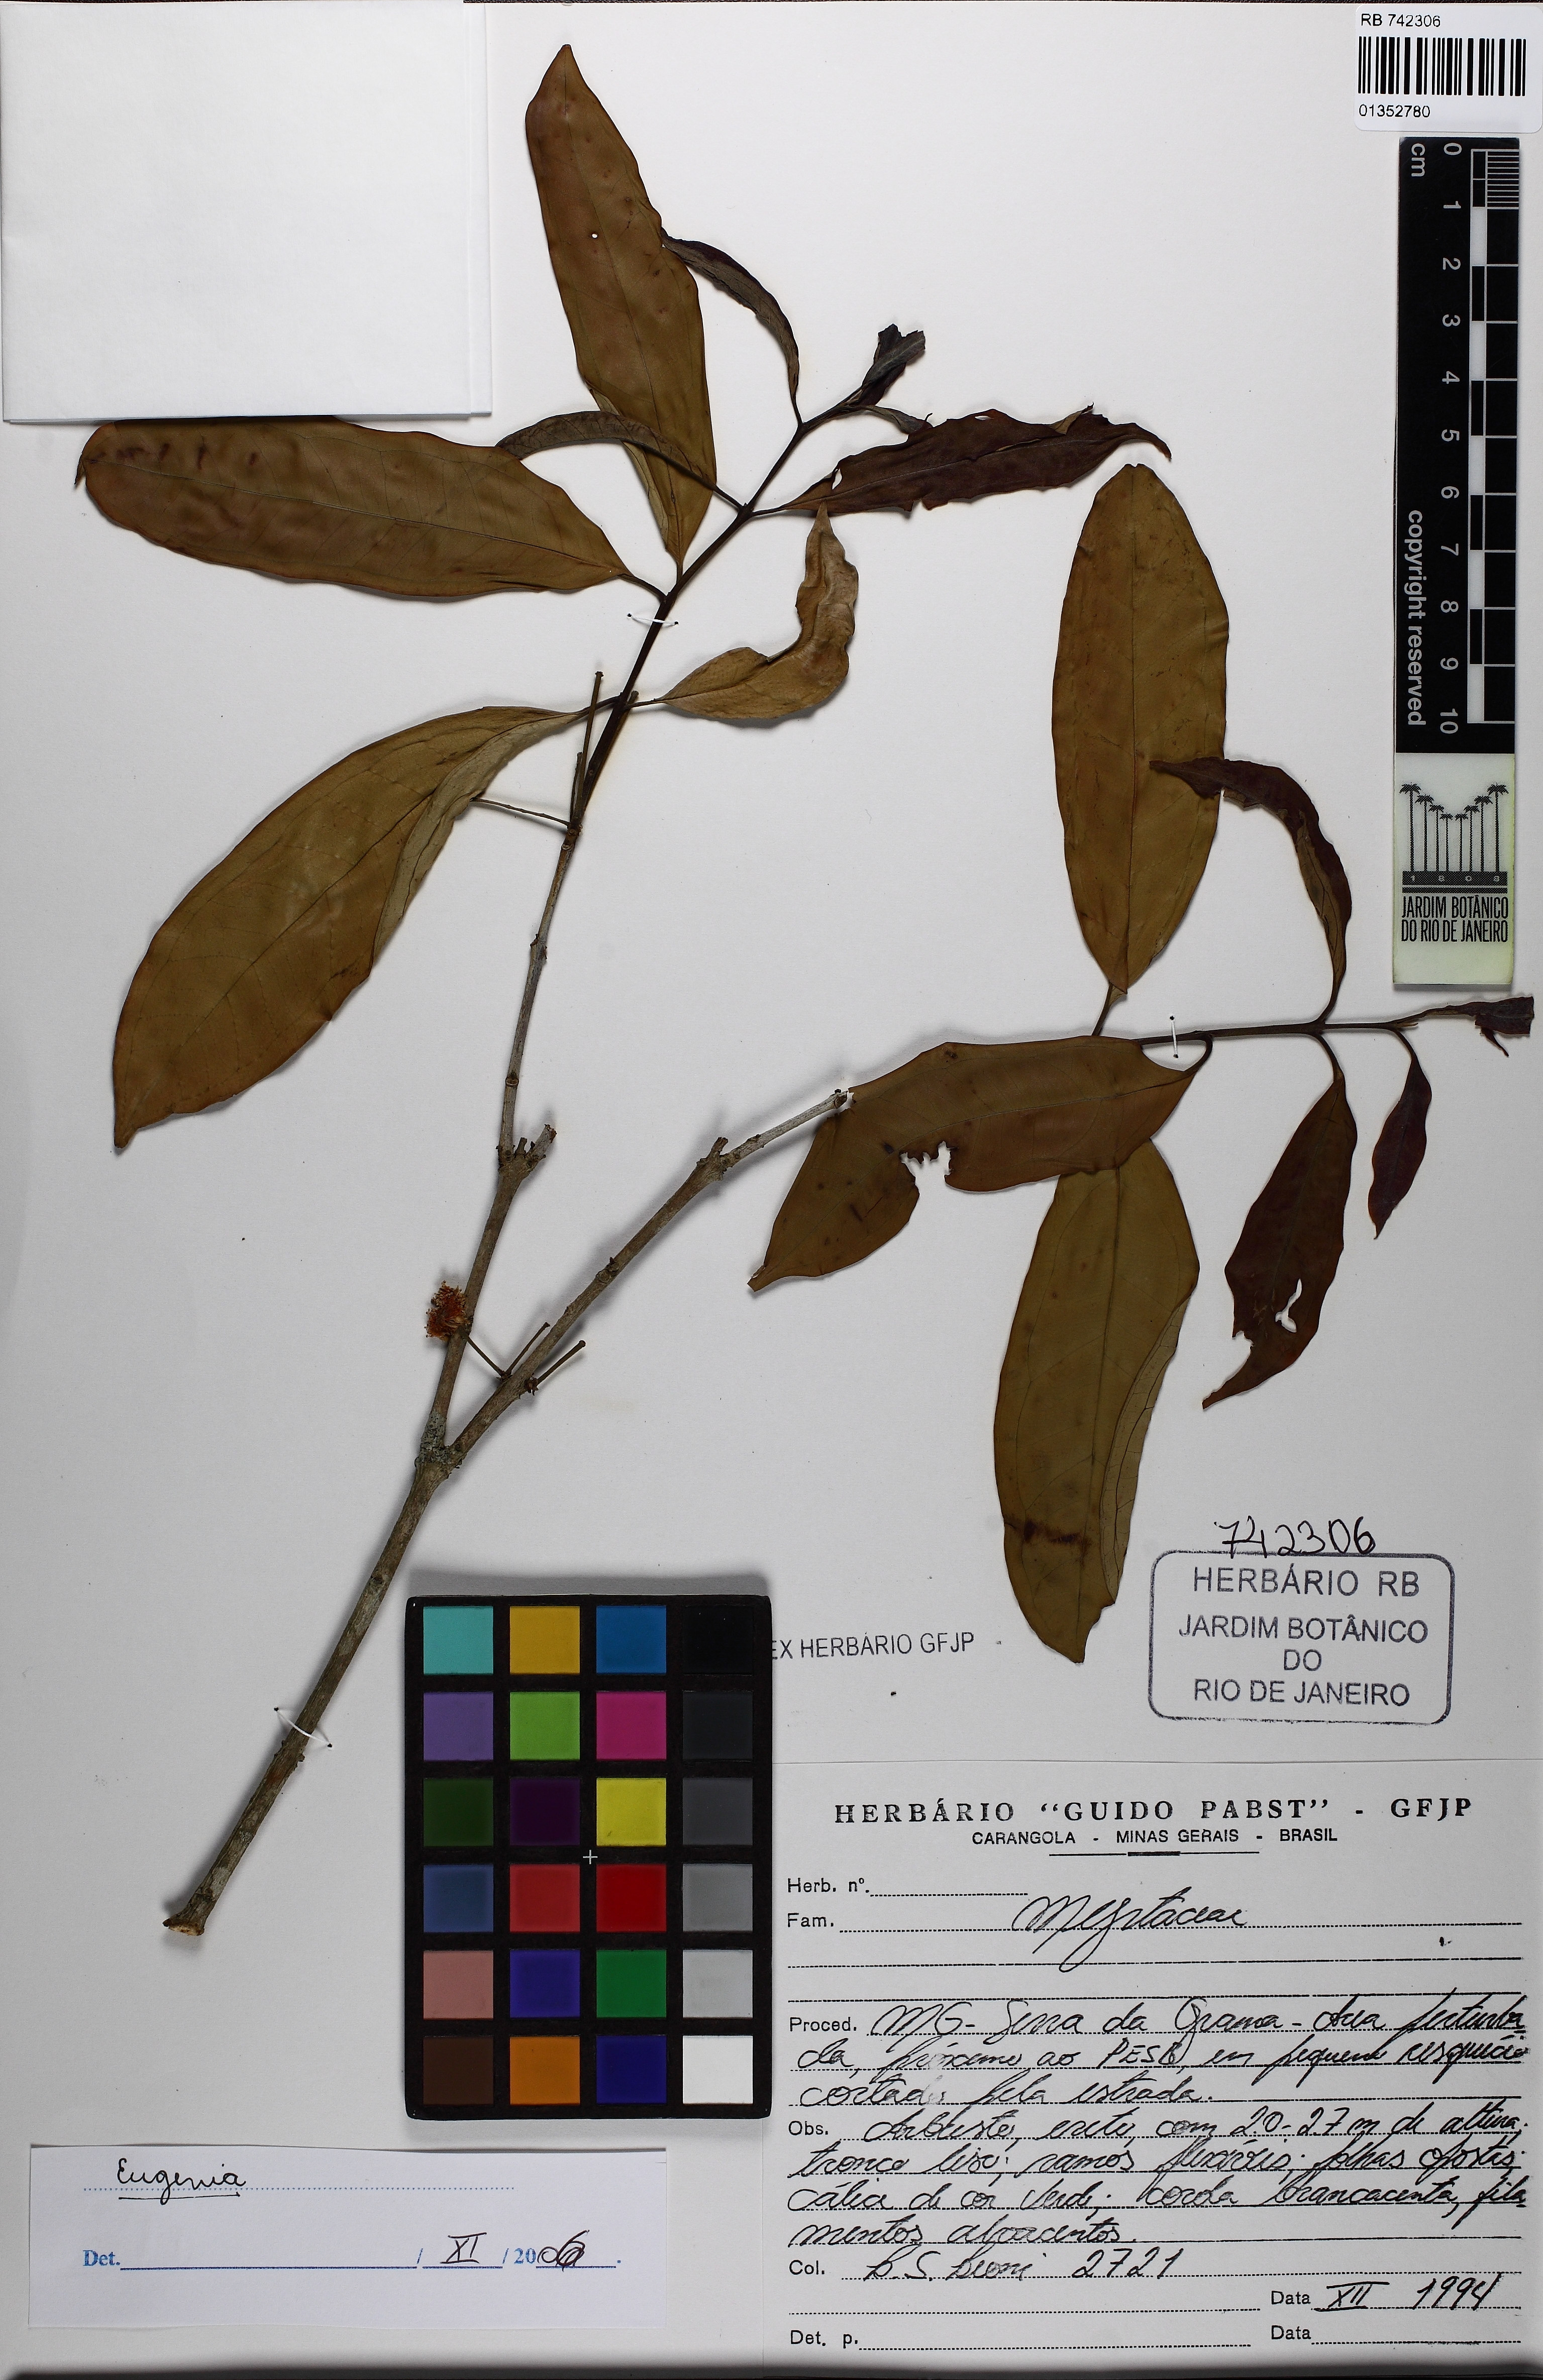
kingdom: Plantae
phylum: Tracheophyta
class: Magnoliopsida
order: Myrtales
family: Myrtaceae
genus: Eugenia
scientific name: Eugenia
